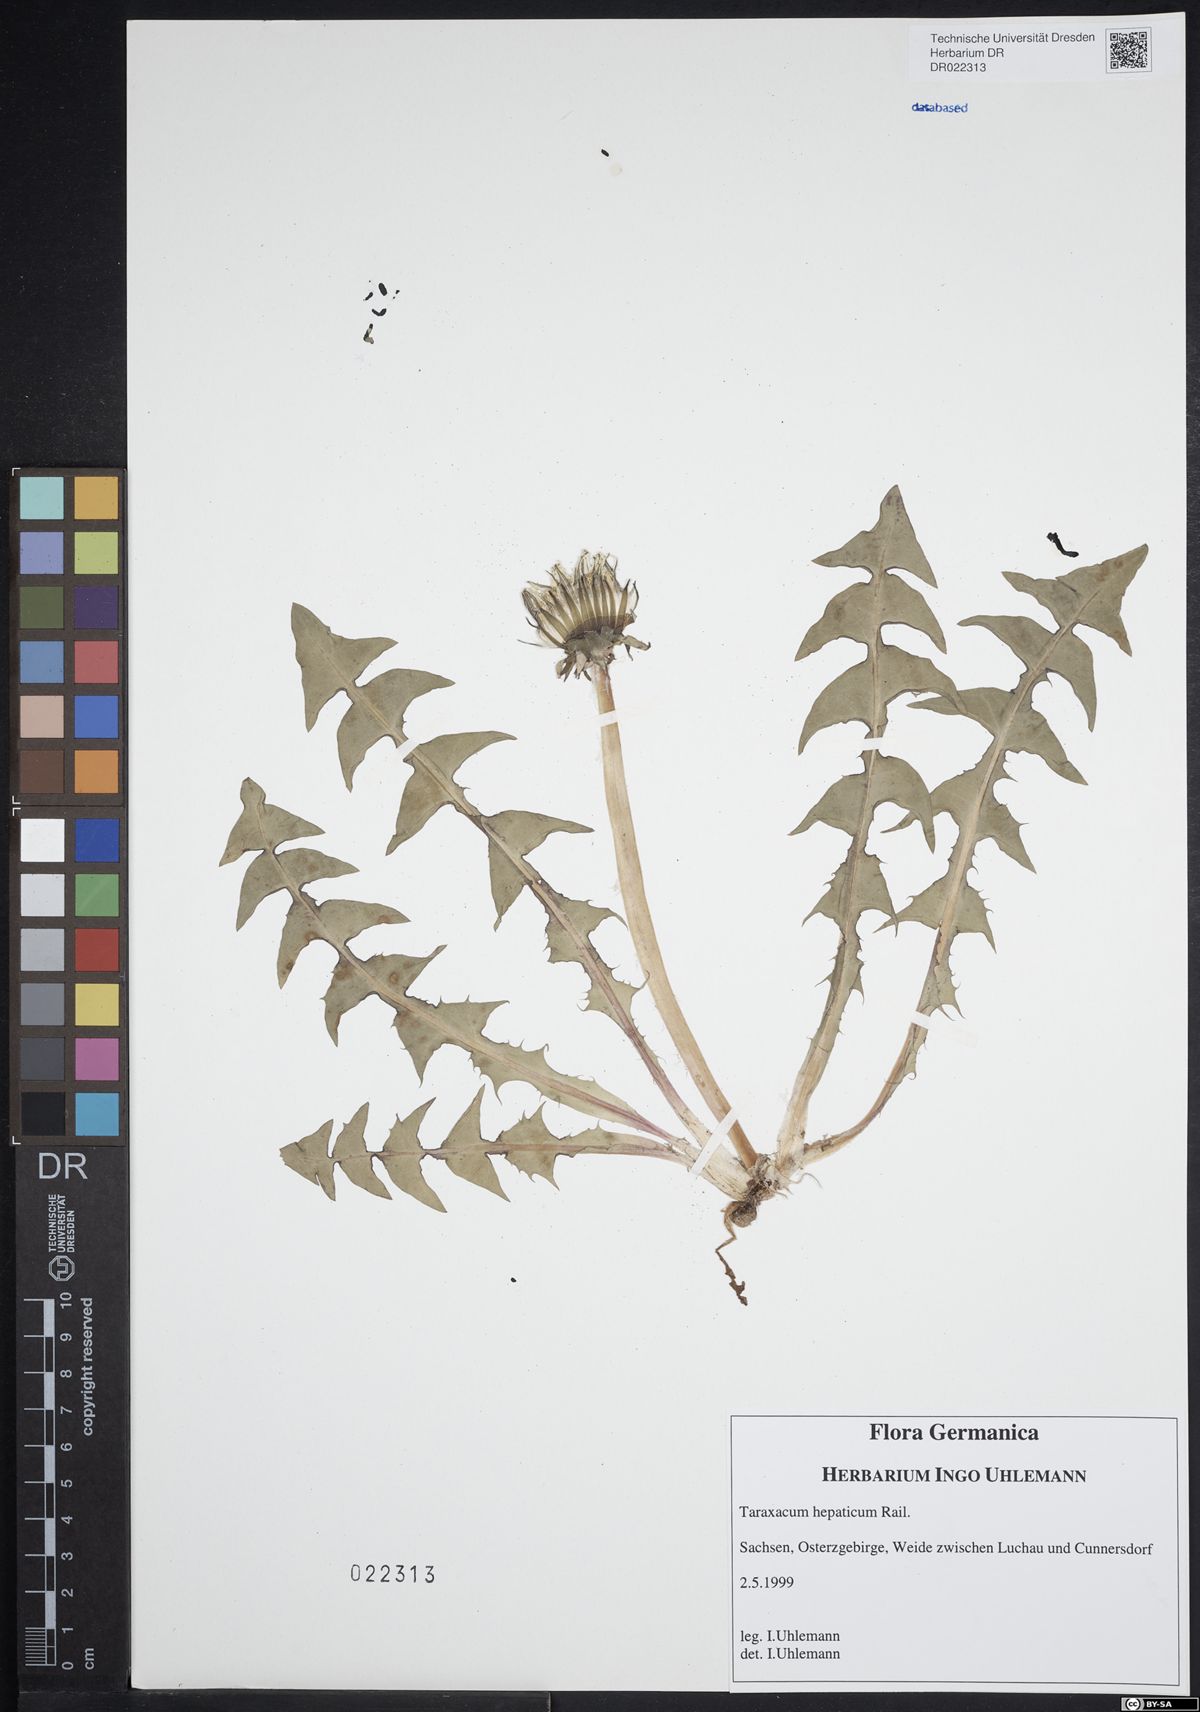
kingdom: Plantae
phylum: Tracheophyta
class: Magnoliopsida
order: Asterales
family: Asteraceae
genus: Taraxacum
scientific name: Taraxacum hepaticum
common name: Regular-lobed dandelion
